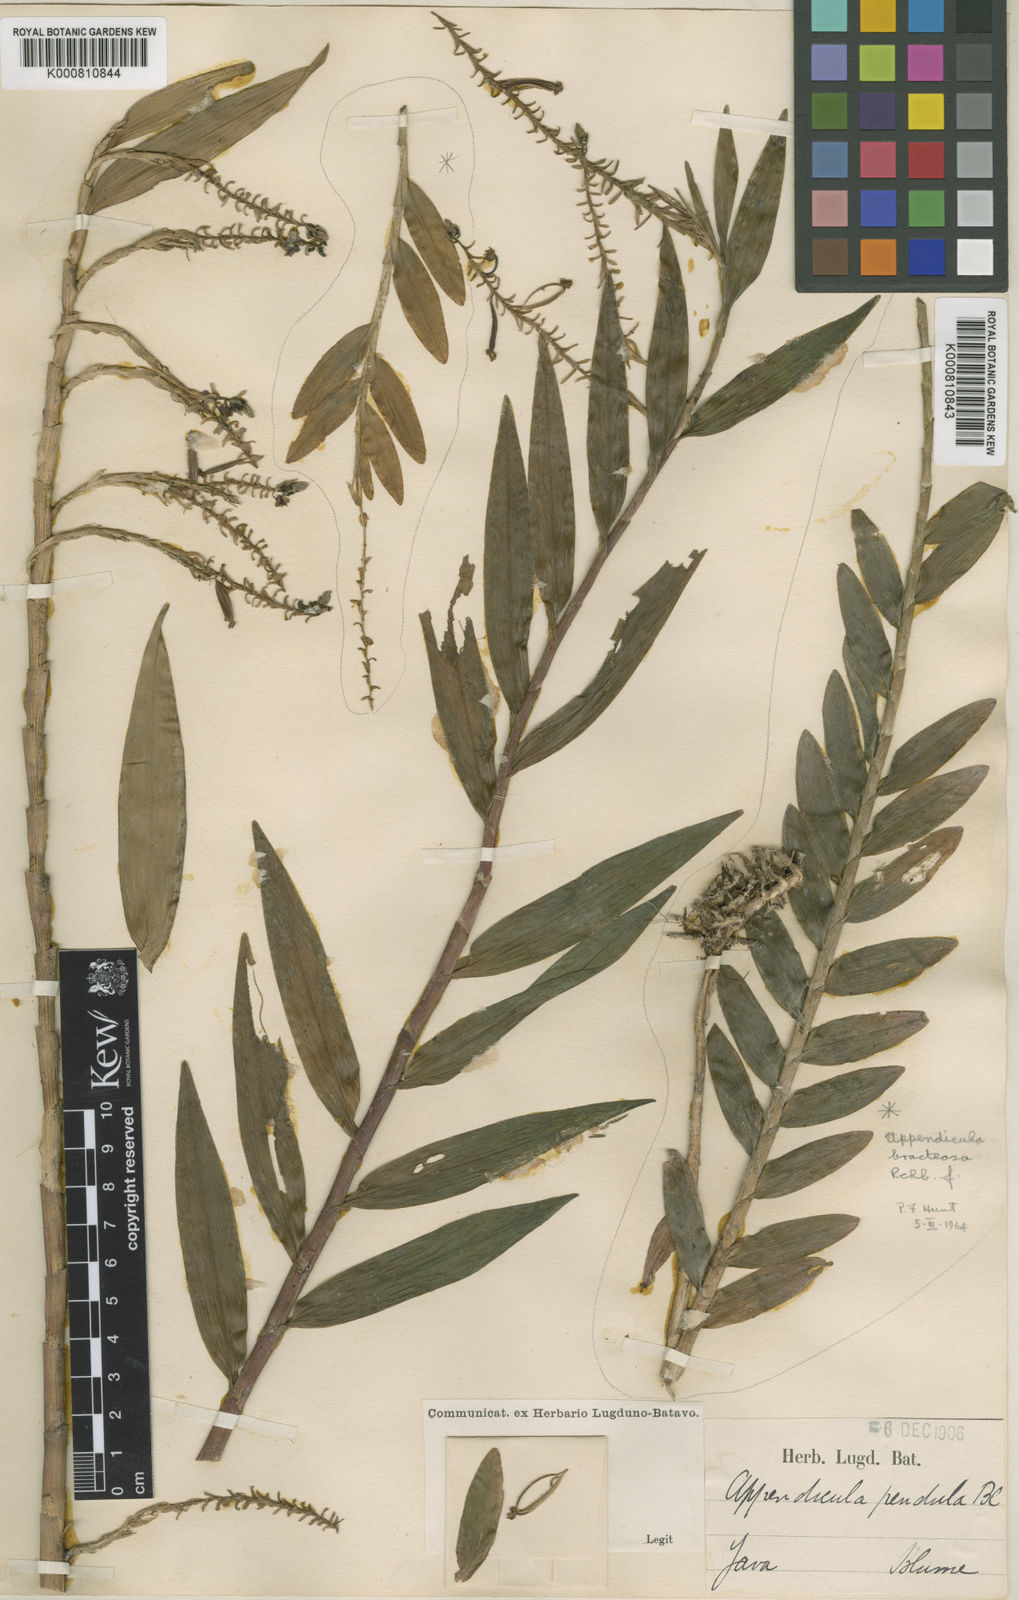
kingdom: Plantae
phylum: Tracheophyta
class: Liliopsida
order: Asparagales
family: Orchidaceae
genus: Appendicula
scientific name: Appendicula pendula
